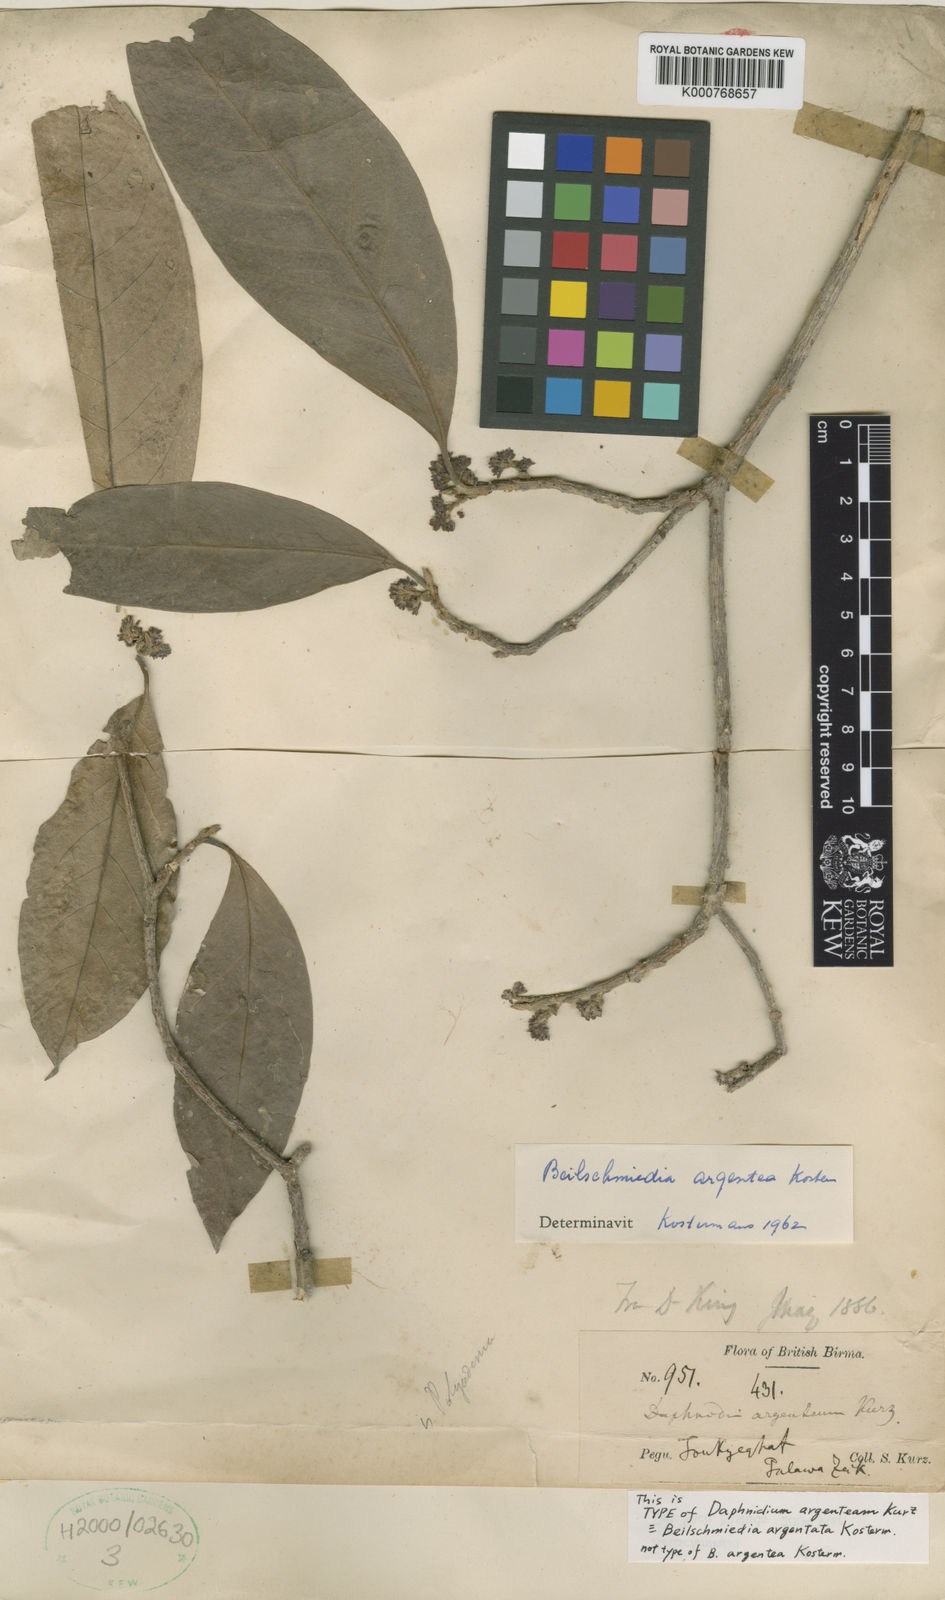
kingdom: Plantae
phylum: Tracheophyta
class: Magnoliopsida
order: Laurales
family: Lauraceae
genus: Beilschmiedia
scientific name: Beilschmiedia argentata
